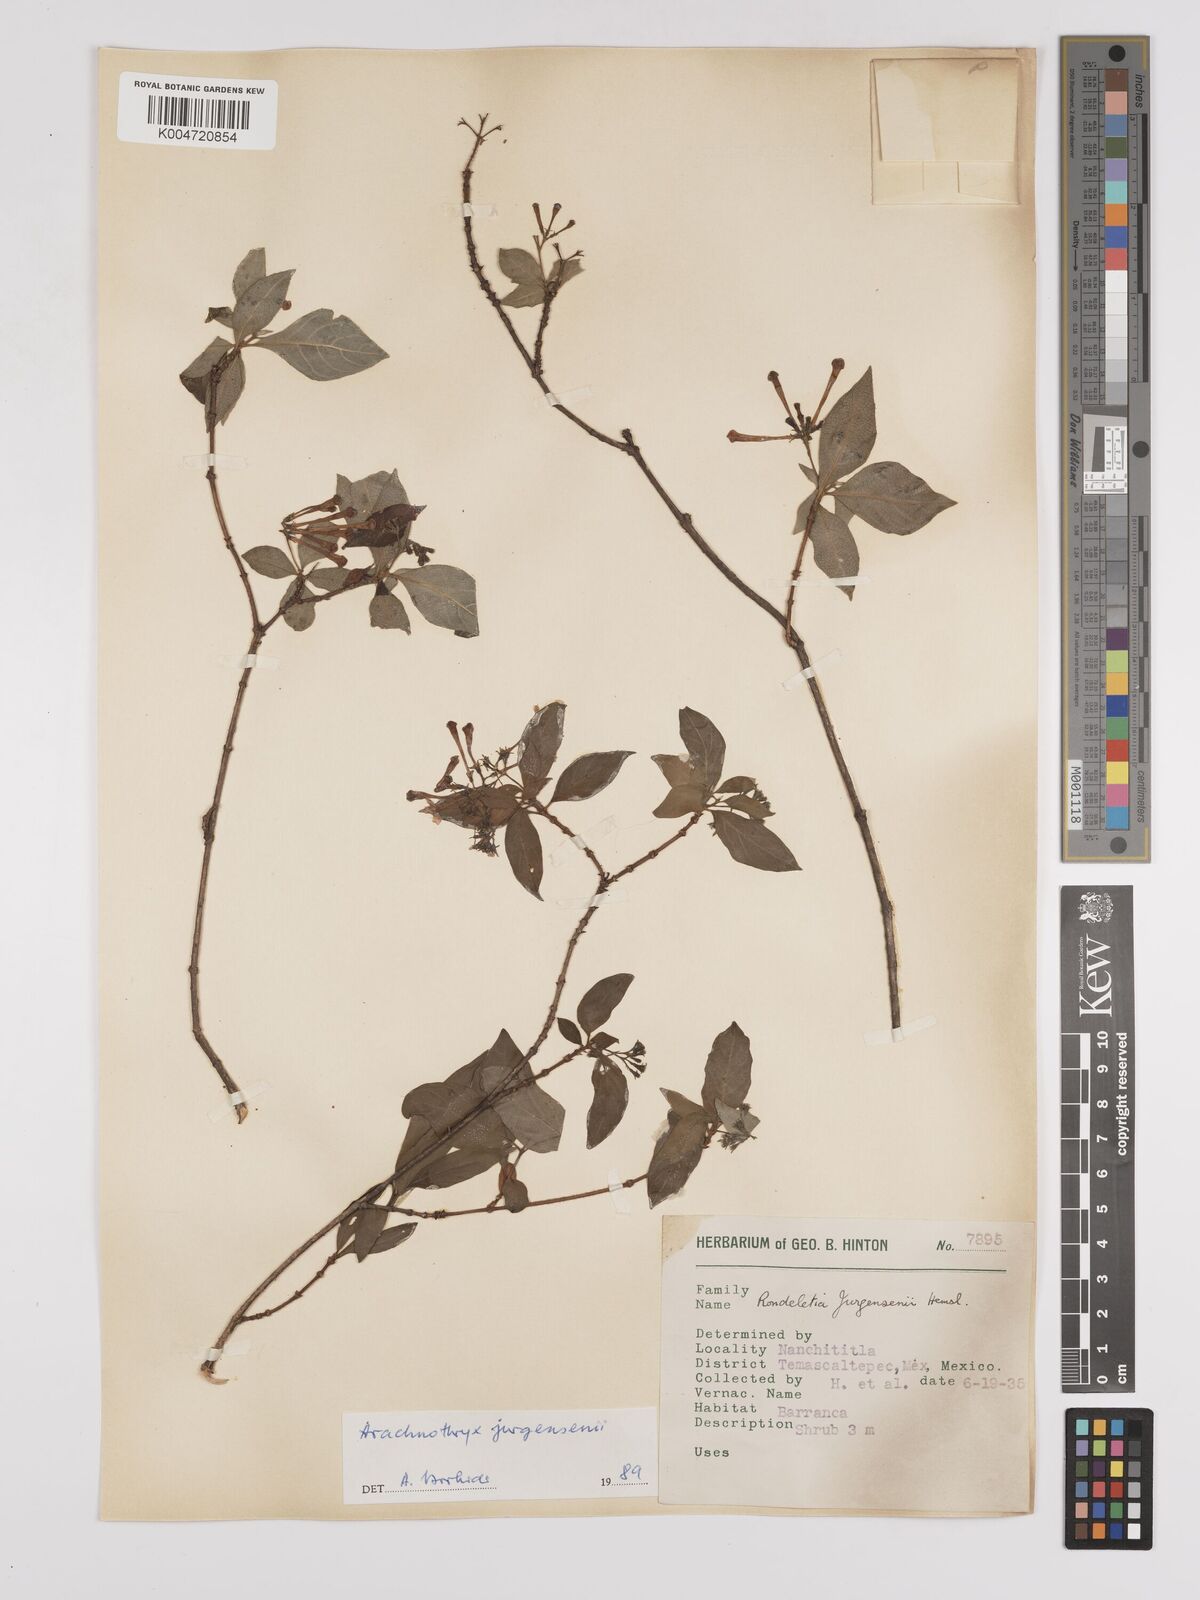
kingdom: Plantae
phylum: Tracheophyta
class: Magnoliopsida
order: Gentianales
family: Rubiaceae
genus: Arachnothryx
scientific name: Arachnothryx jurgensenii
